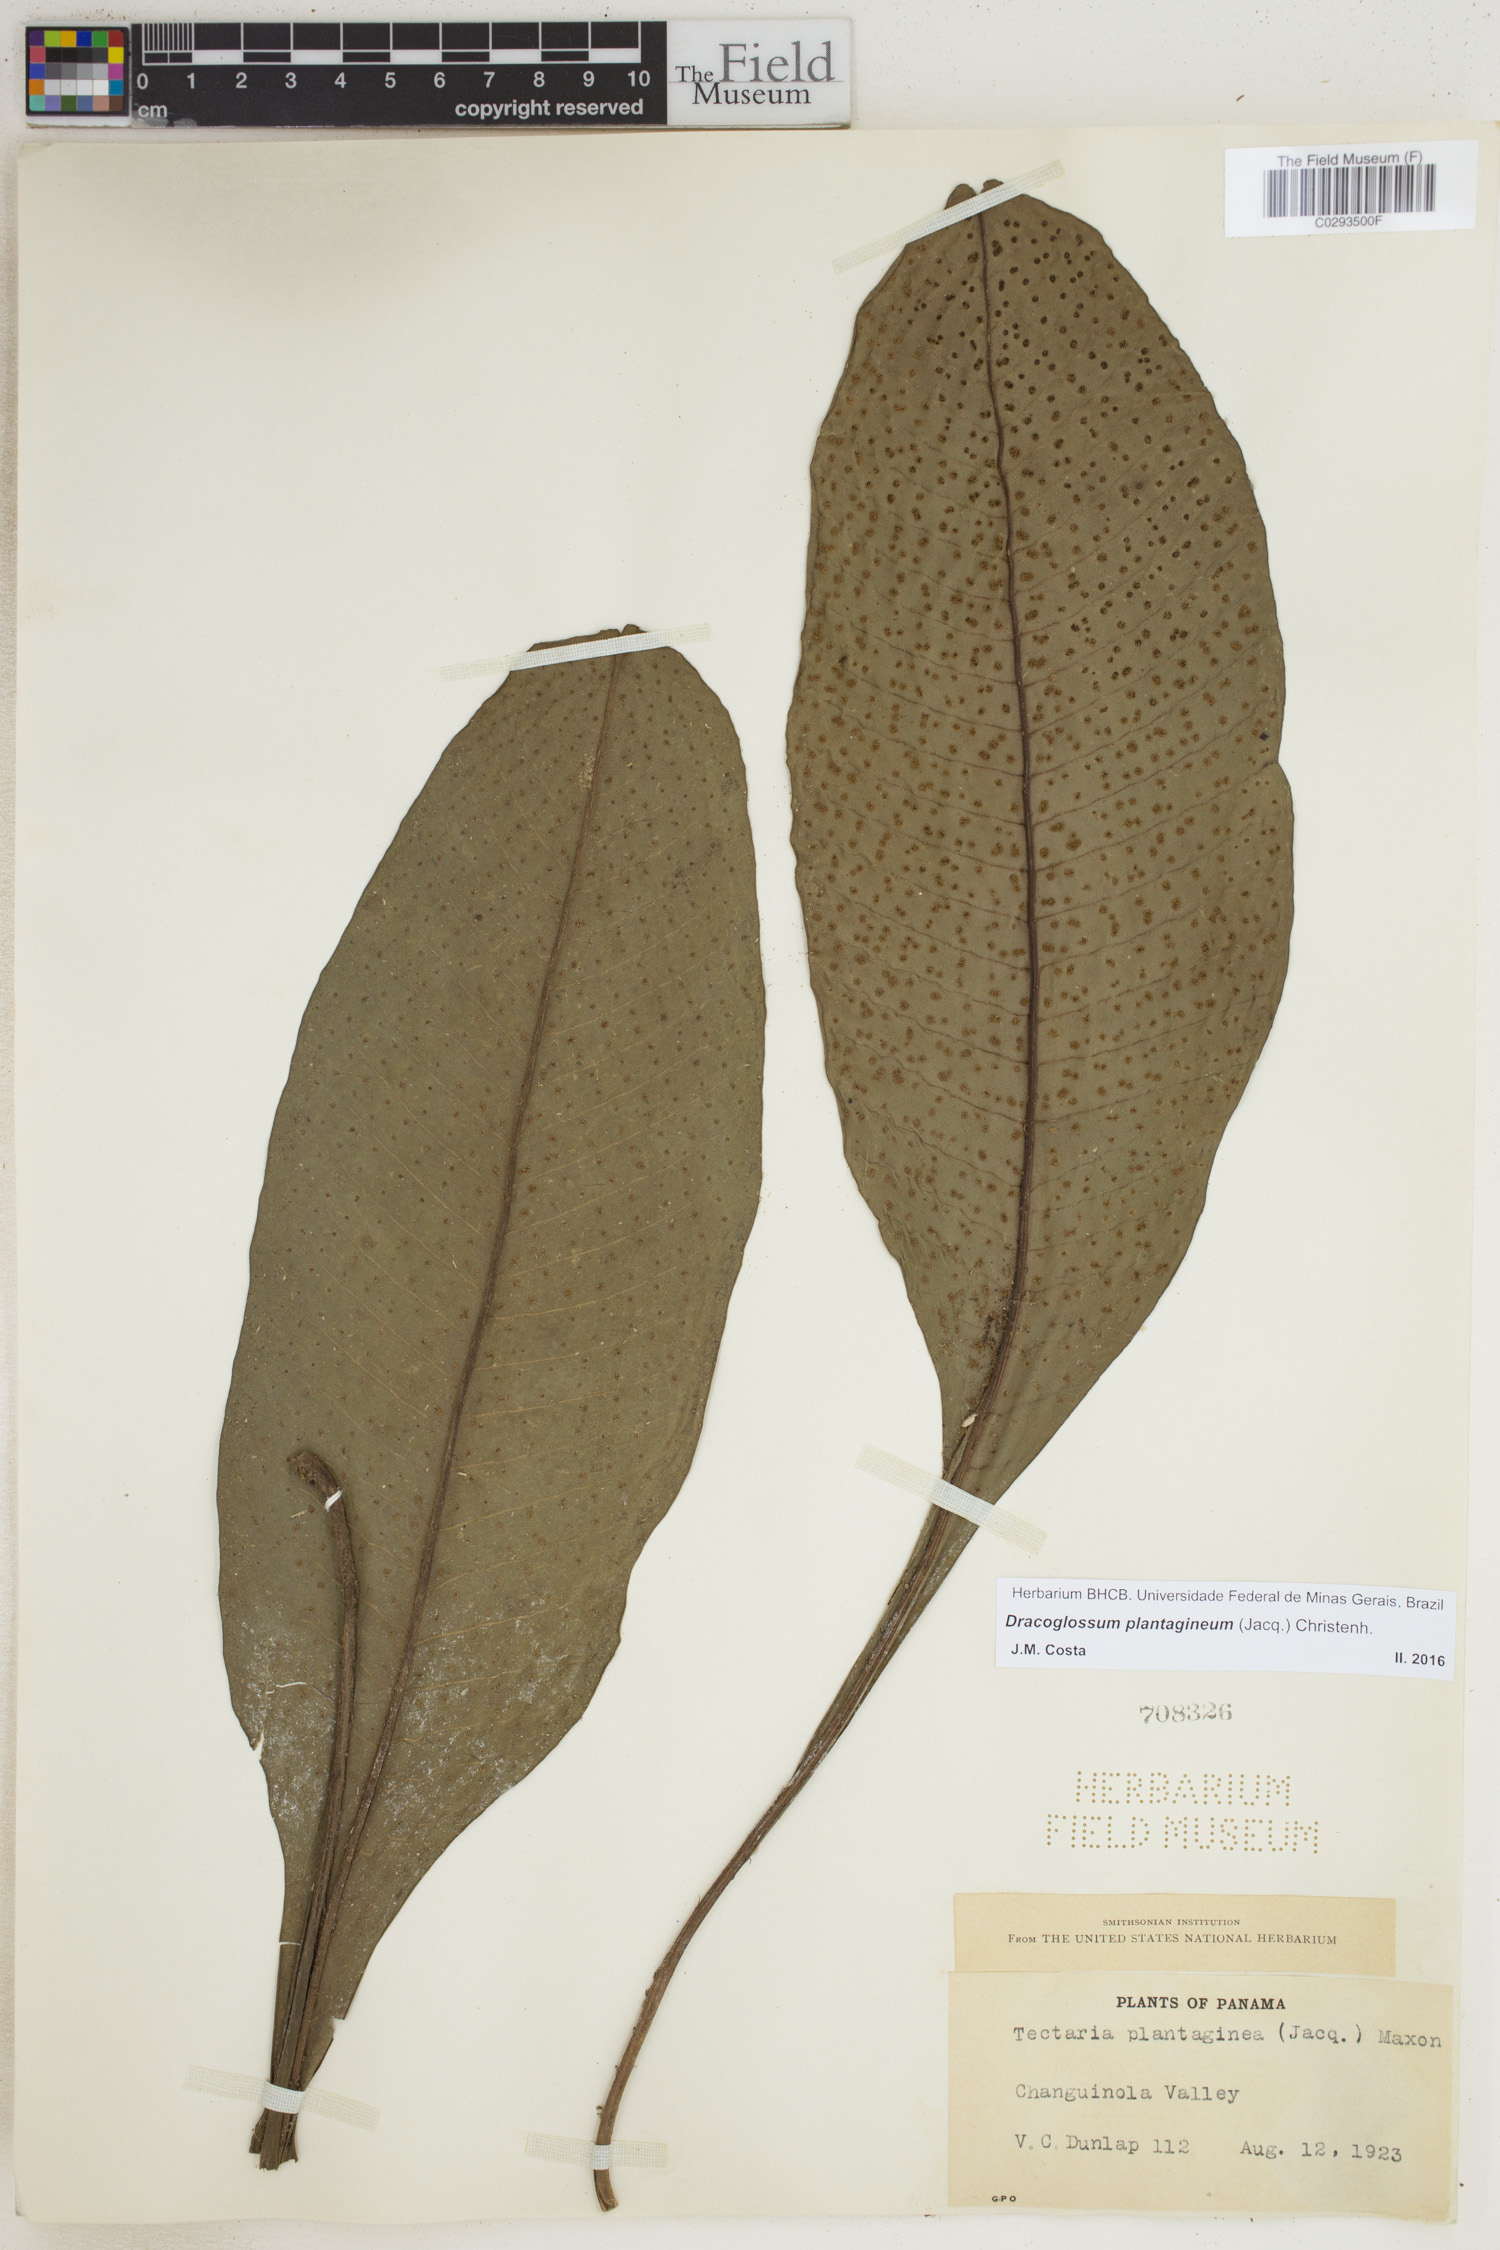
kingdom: Plantae
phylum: Tracheophyta
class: Polypodiopsida
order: Polypodiales
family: Lomariopsidaceae
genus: Dracoglossum
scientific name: Dracoglossum plantagineum
